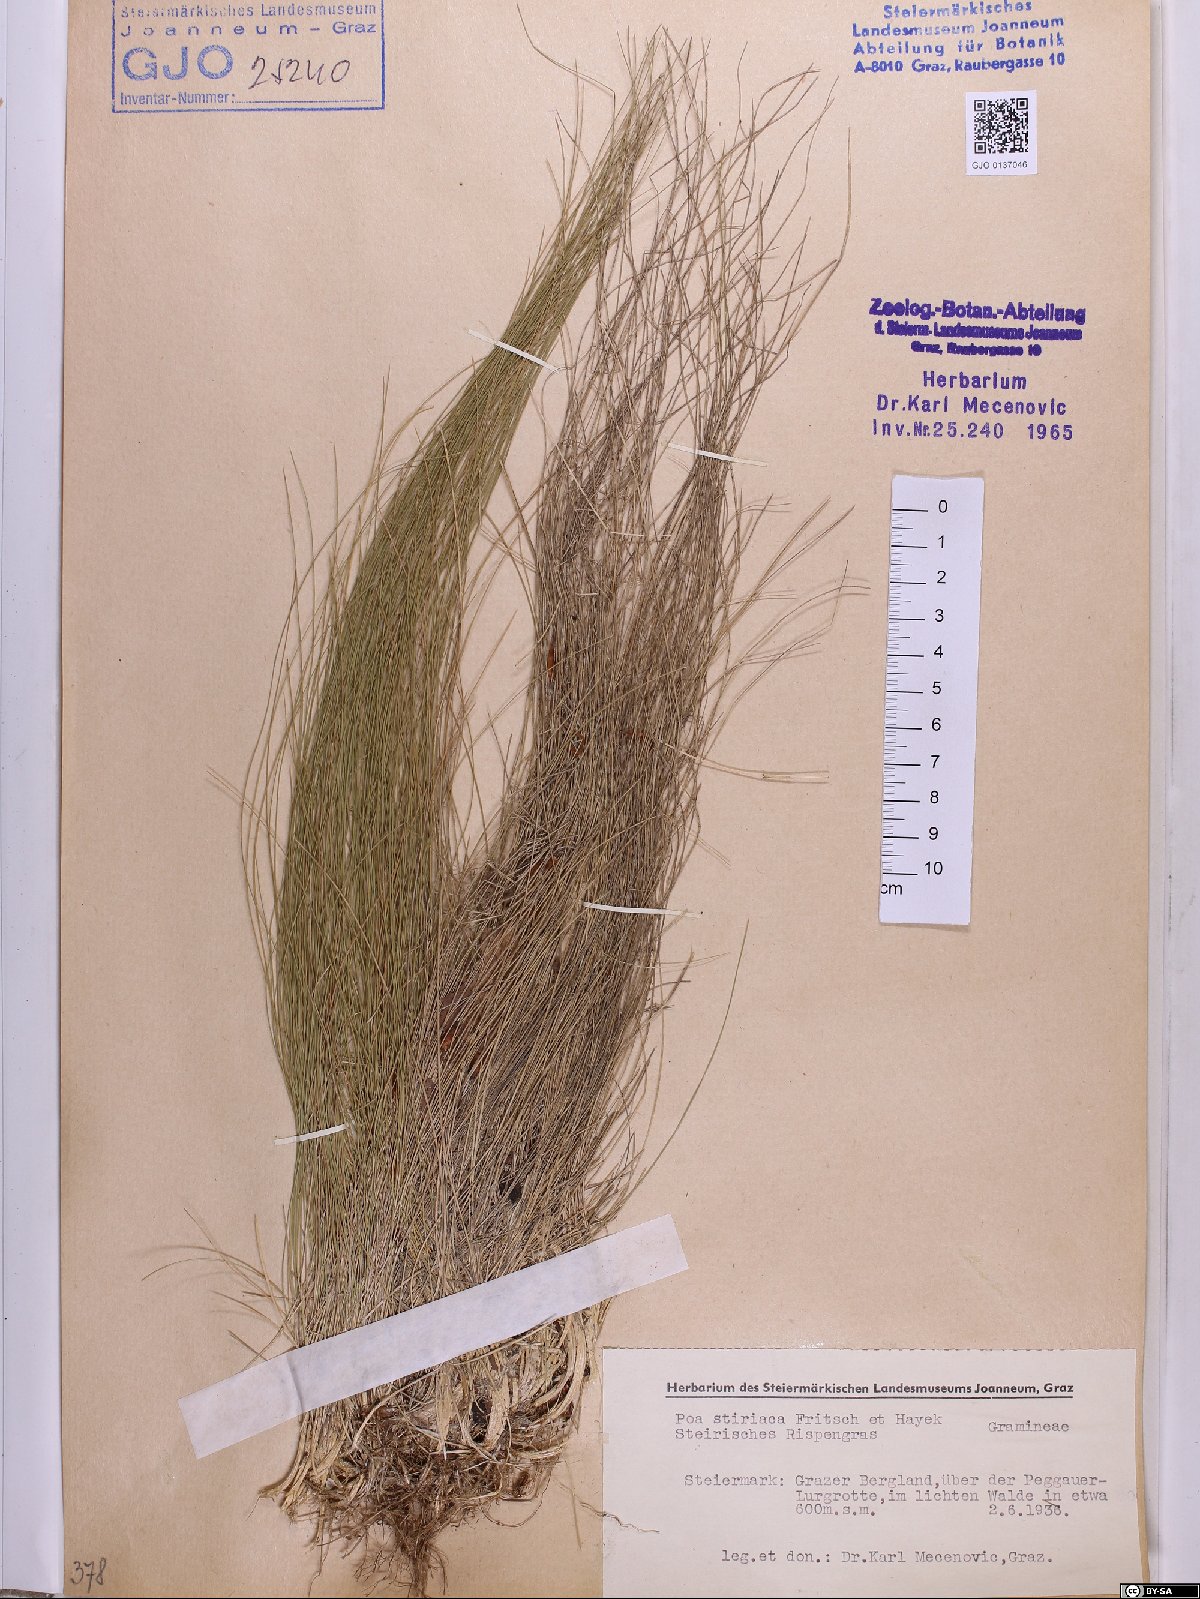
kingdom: Plantae
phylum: Tracheophyta
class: Liliopsida
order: Poales
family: Poaceae
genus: Poa
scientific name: Poa stiriaca
